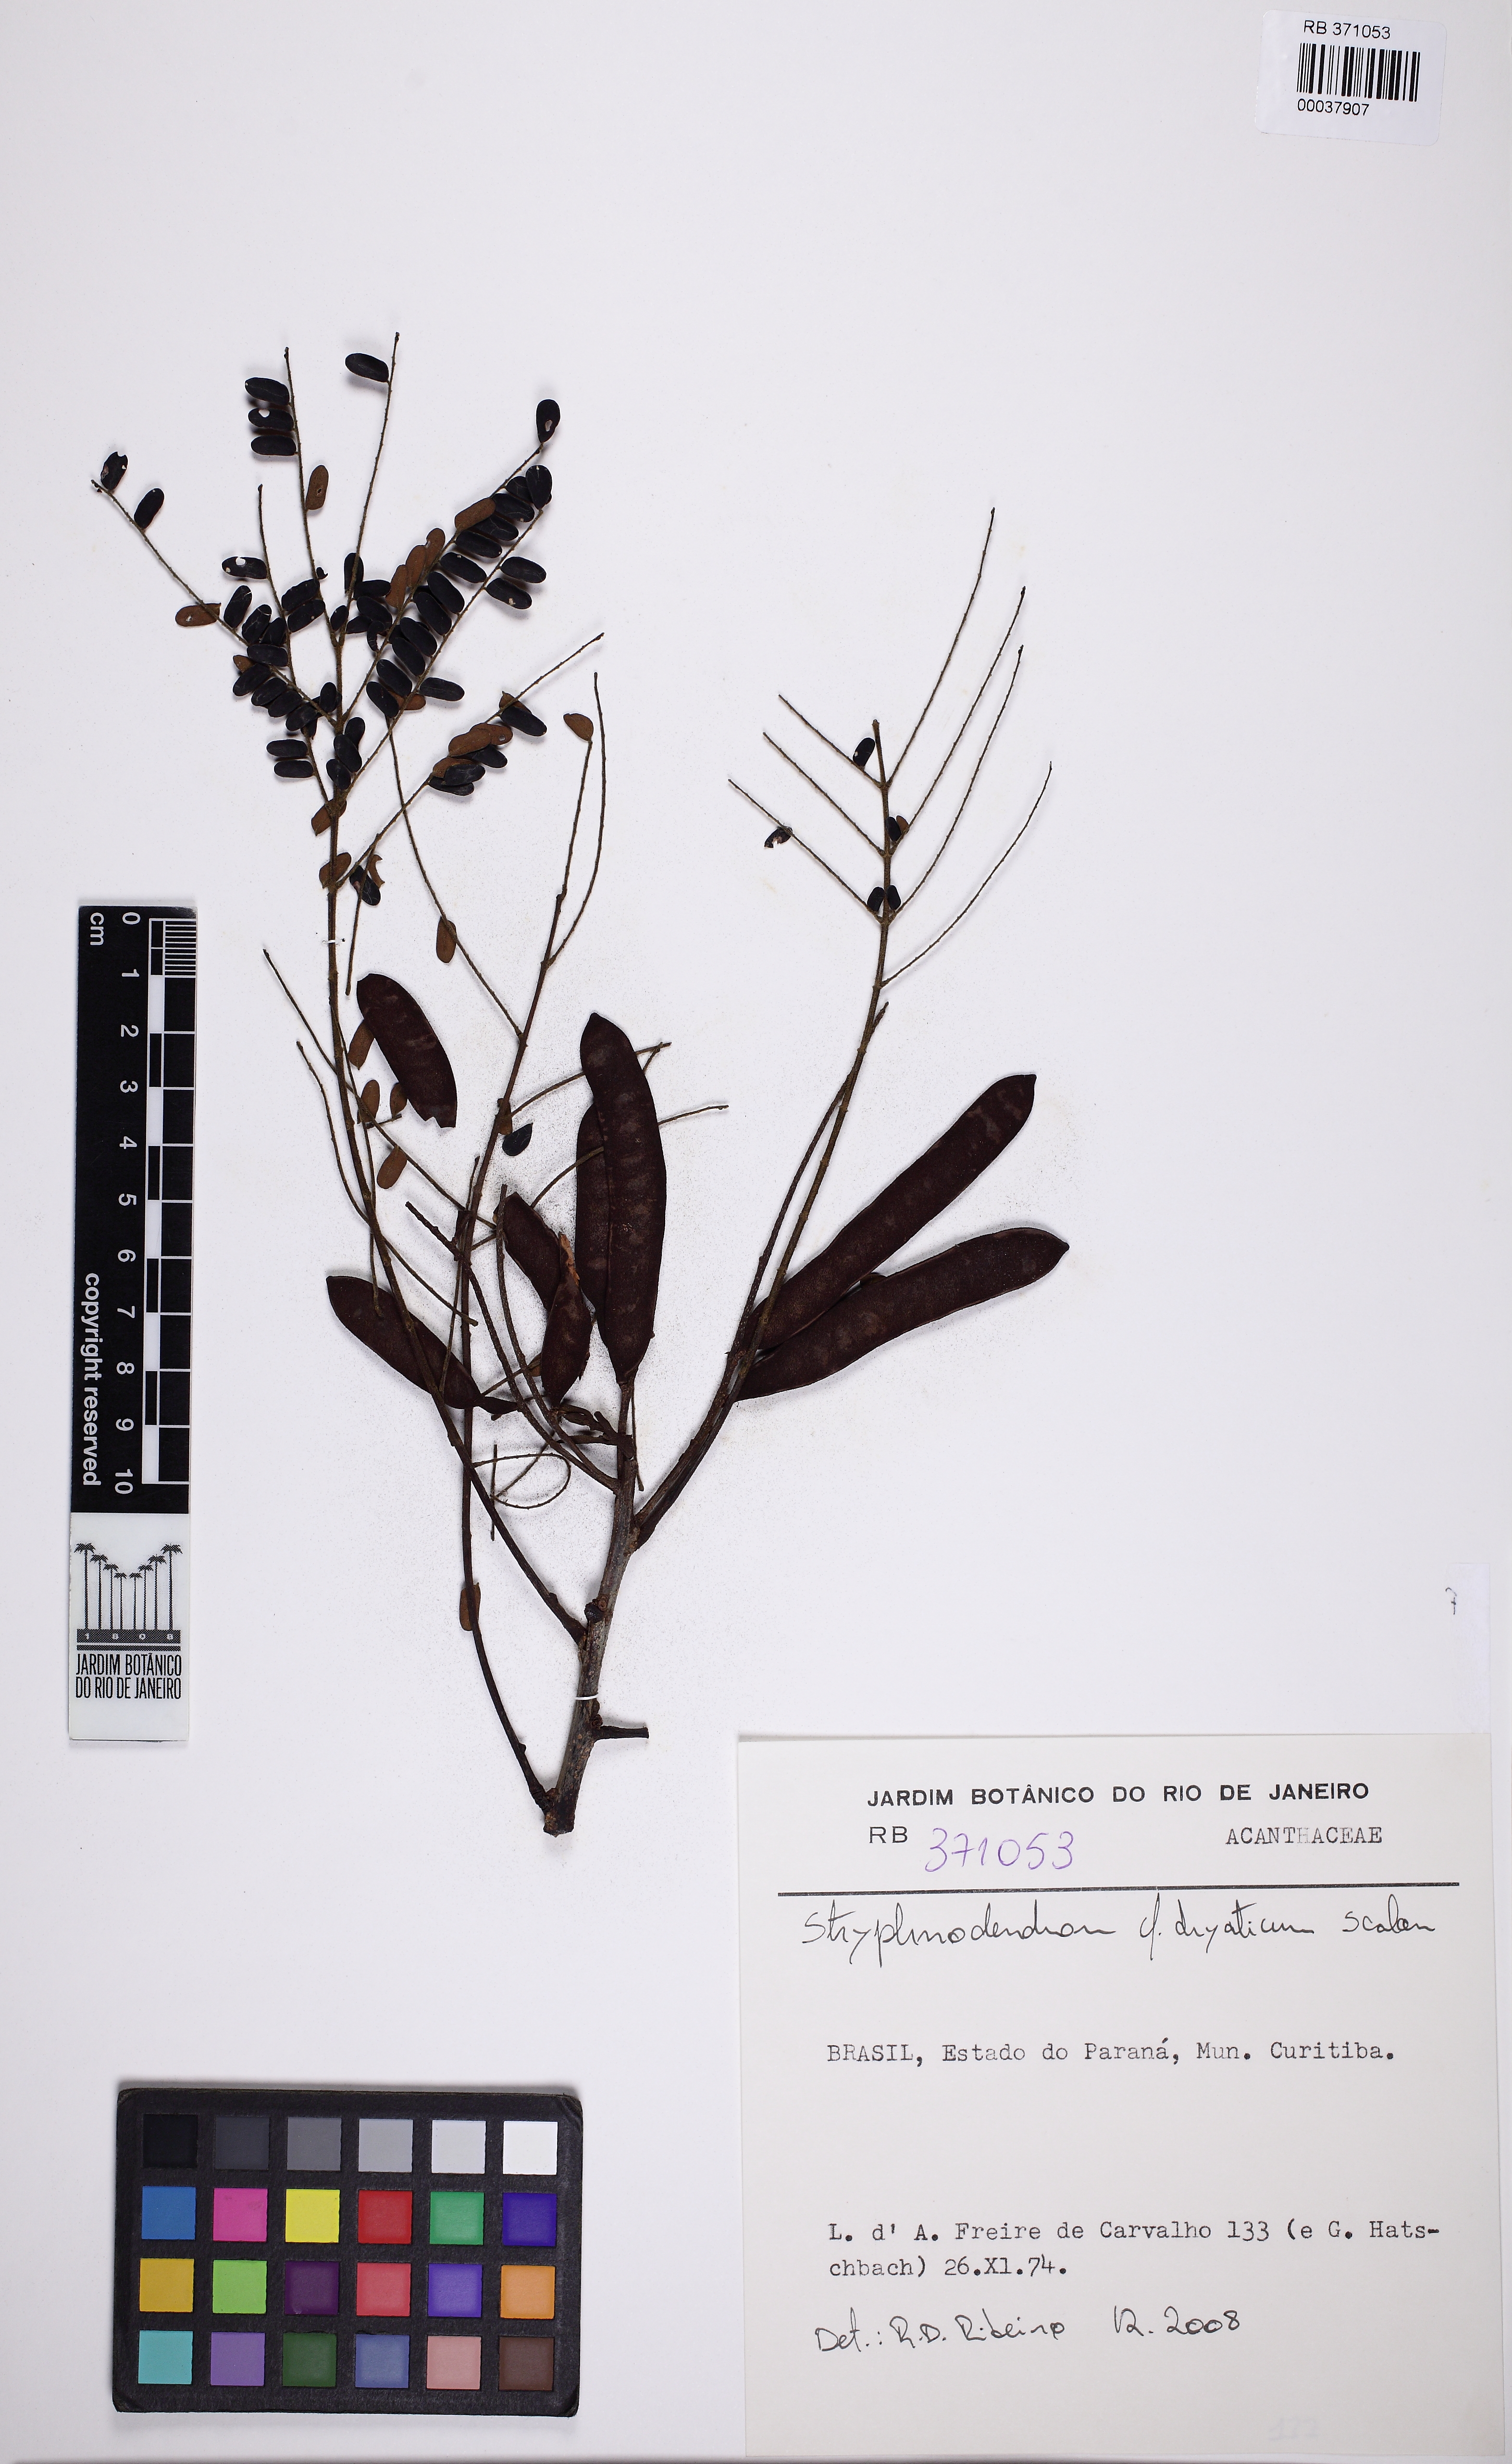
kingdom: Plantae
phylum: Tracheophyta
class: Magnoliopsida
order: Fabales
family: Fabaceae
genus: Stryphnodendron
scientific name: Stryphnodendron dryaticum
